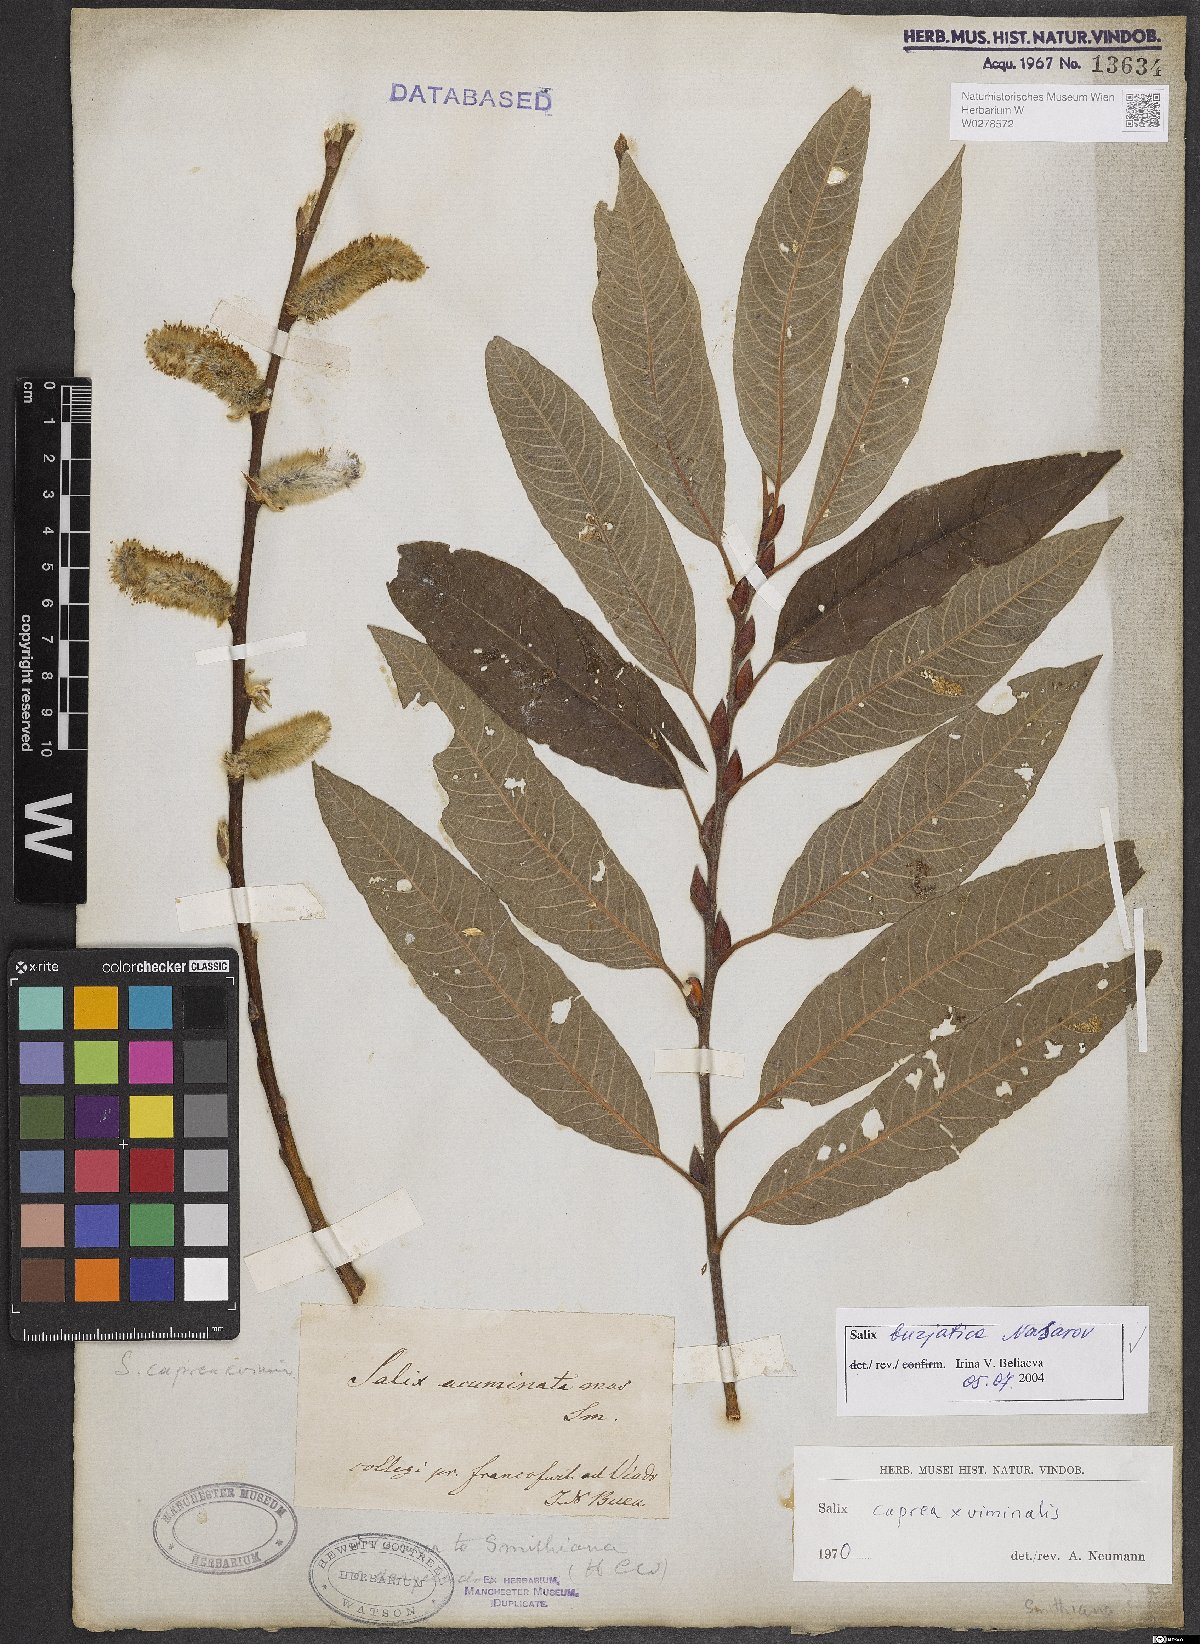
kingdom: Plantae
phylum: Tracheophyta
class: Magnoliopsida
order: Malpighiales
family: Salicaceae
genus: Salix
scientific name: Salix gmelinii
